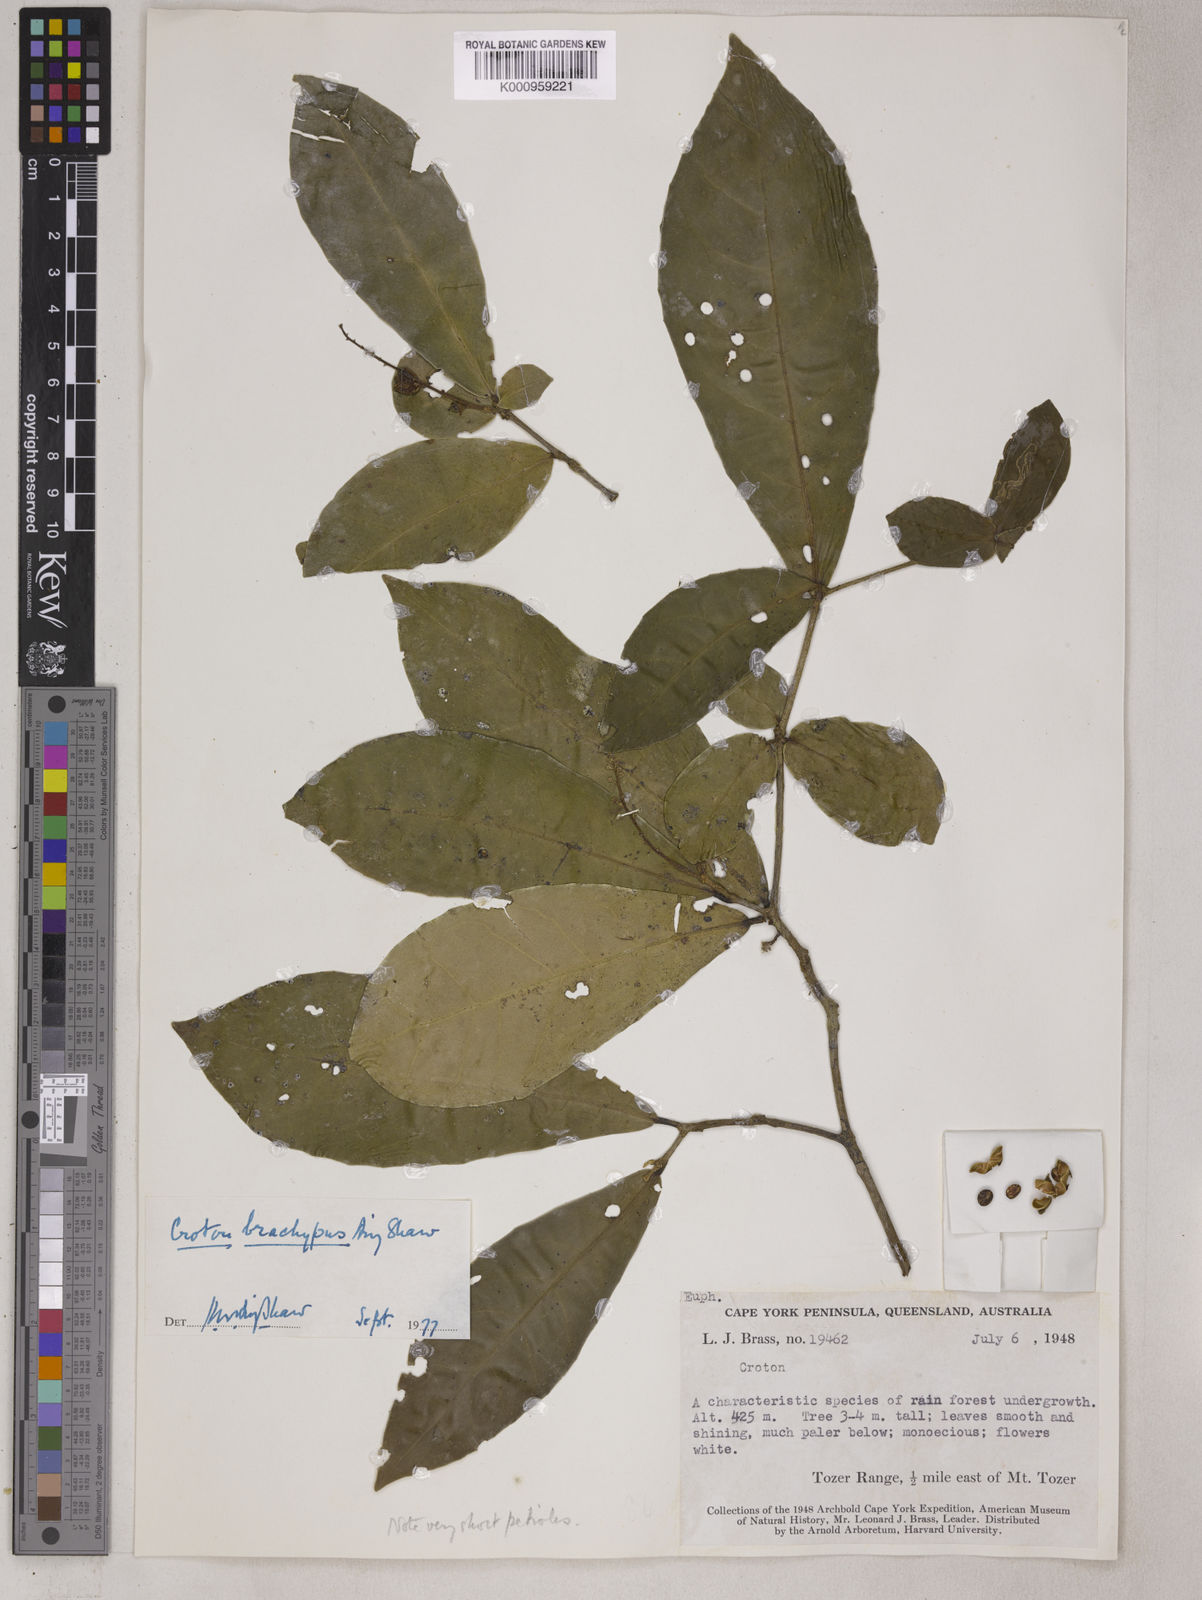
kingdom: Plantae
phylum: Tracheophyta
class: Magnoliopsida
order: Malpighiales
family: Euphorbiaceae
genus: Croton
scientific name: Croton brachypus
